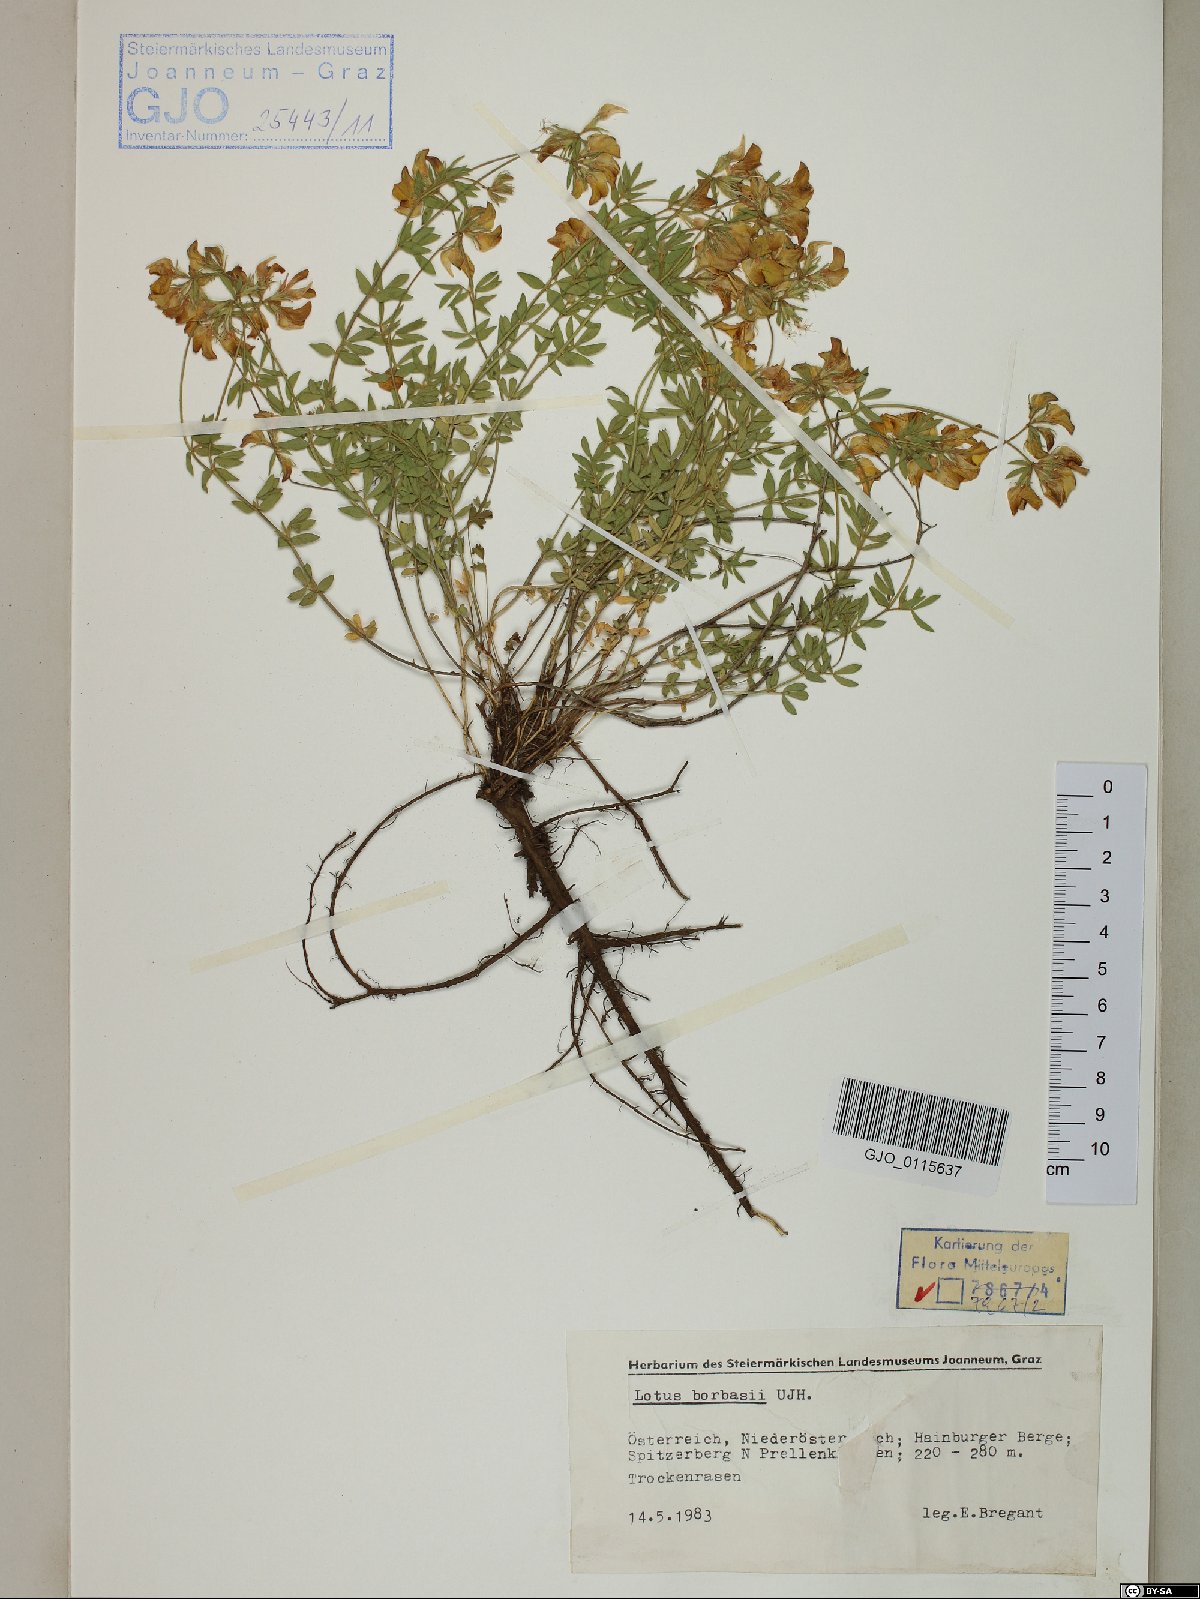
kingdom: Plantae
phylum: Tracheophyta
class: Magnoliopsida
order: Fabales
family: Fabaceae
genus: Lotus
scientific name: Lotus borbasii
